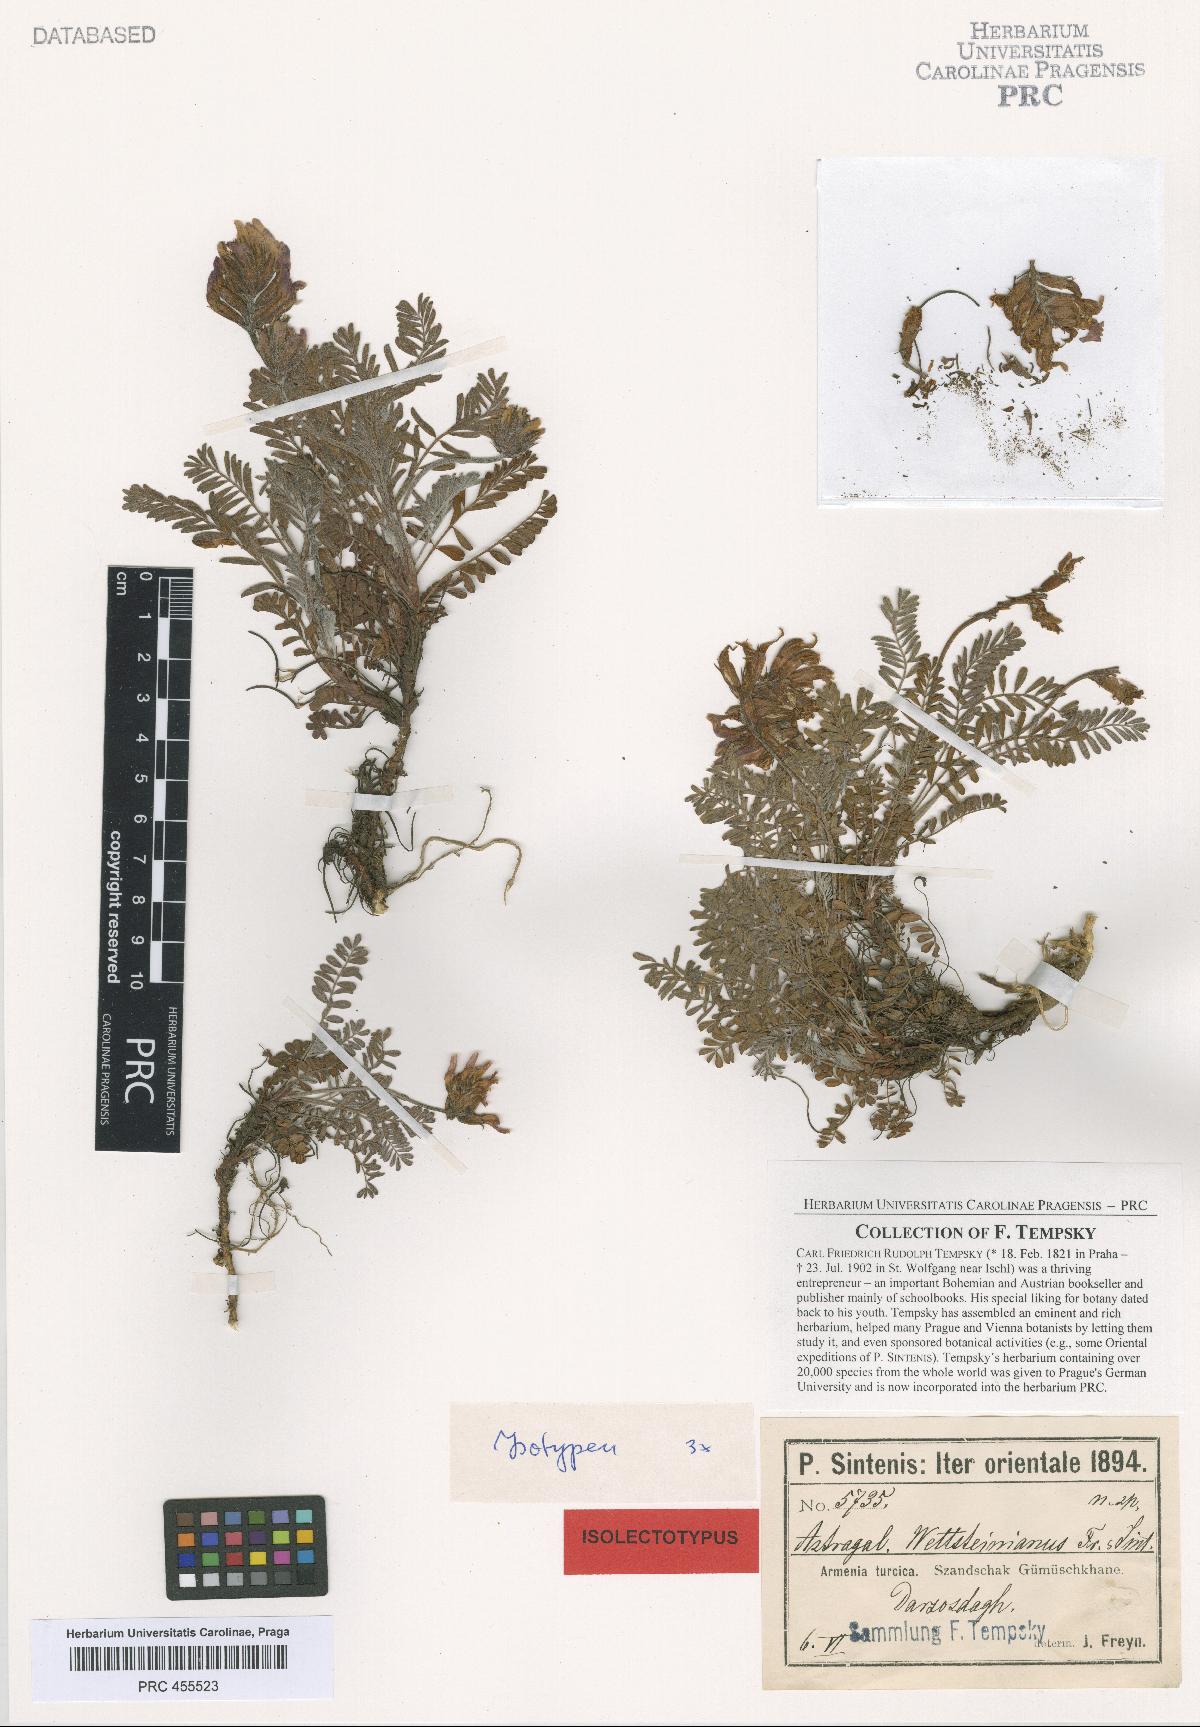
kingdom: Plantae
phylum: Tracheophyta
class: Magnoliopsida
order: Fabales
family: Fabaceae
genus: Astragalus
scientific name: Astragalus amoenus
